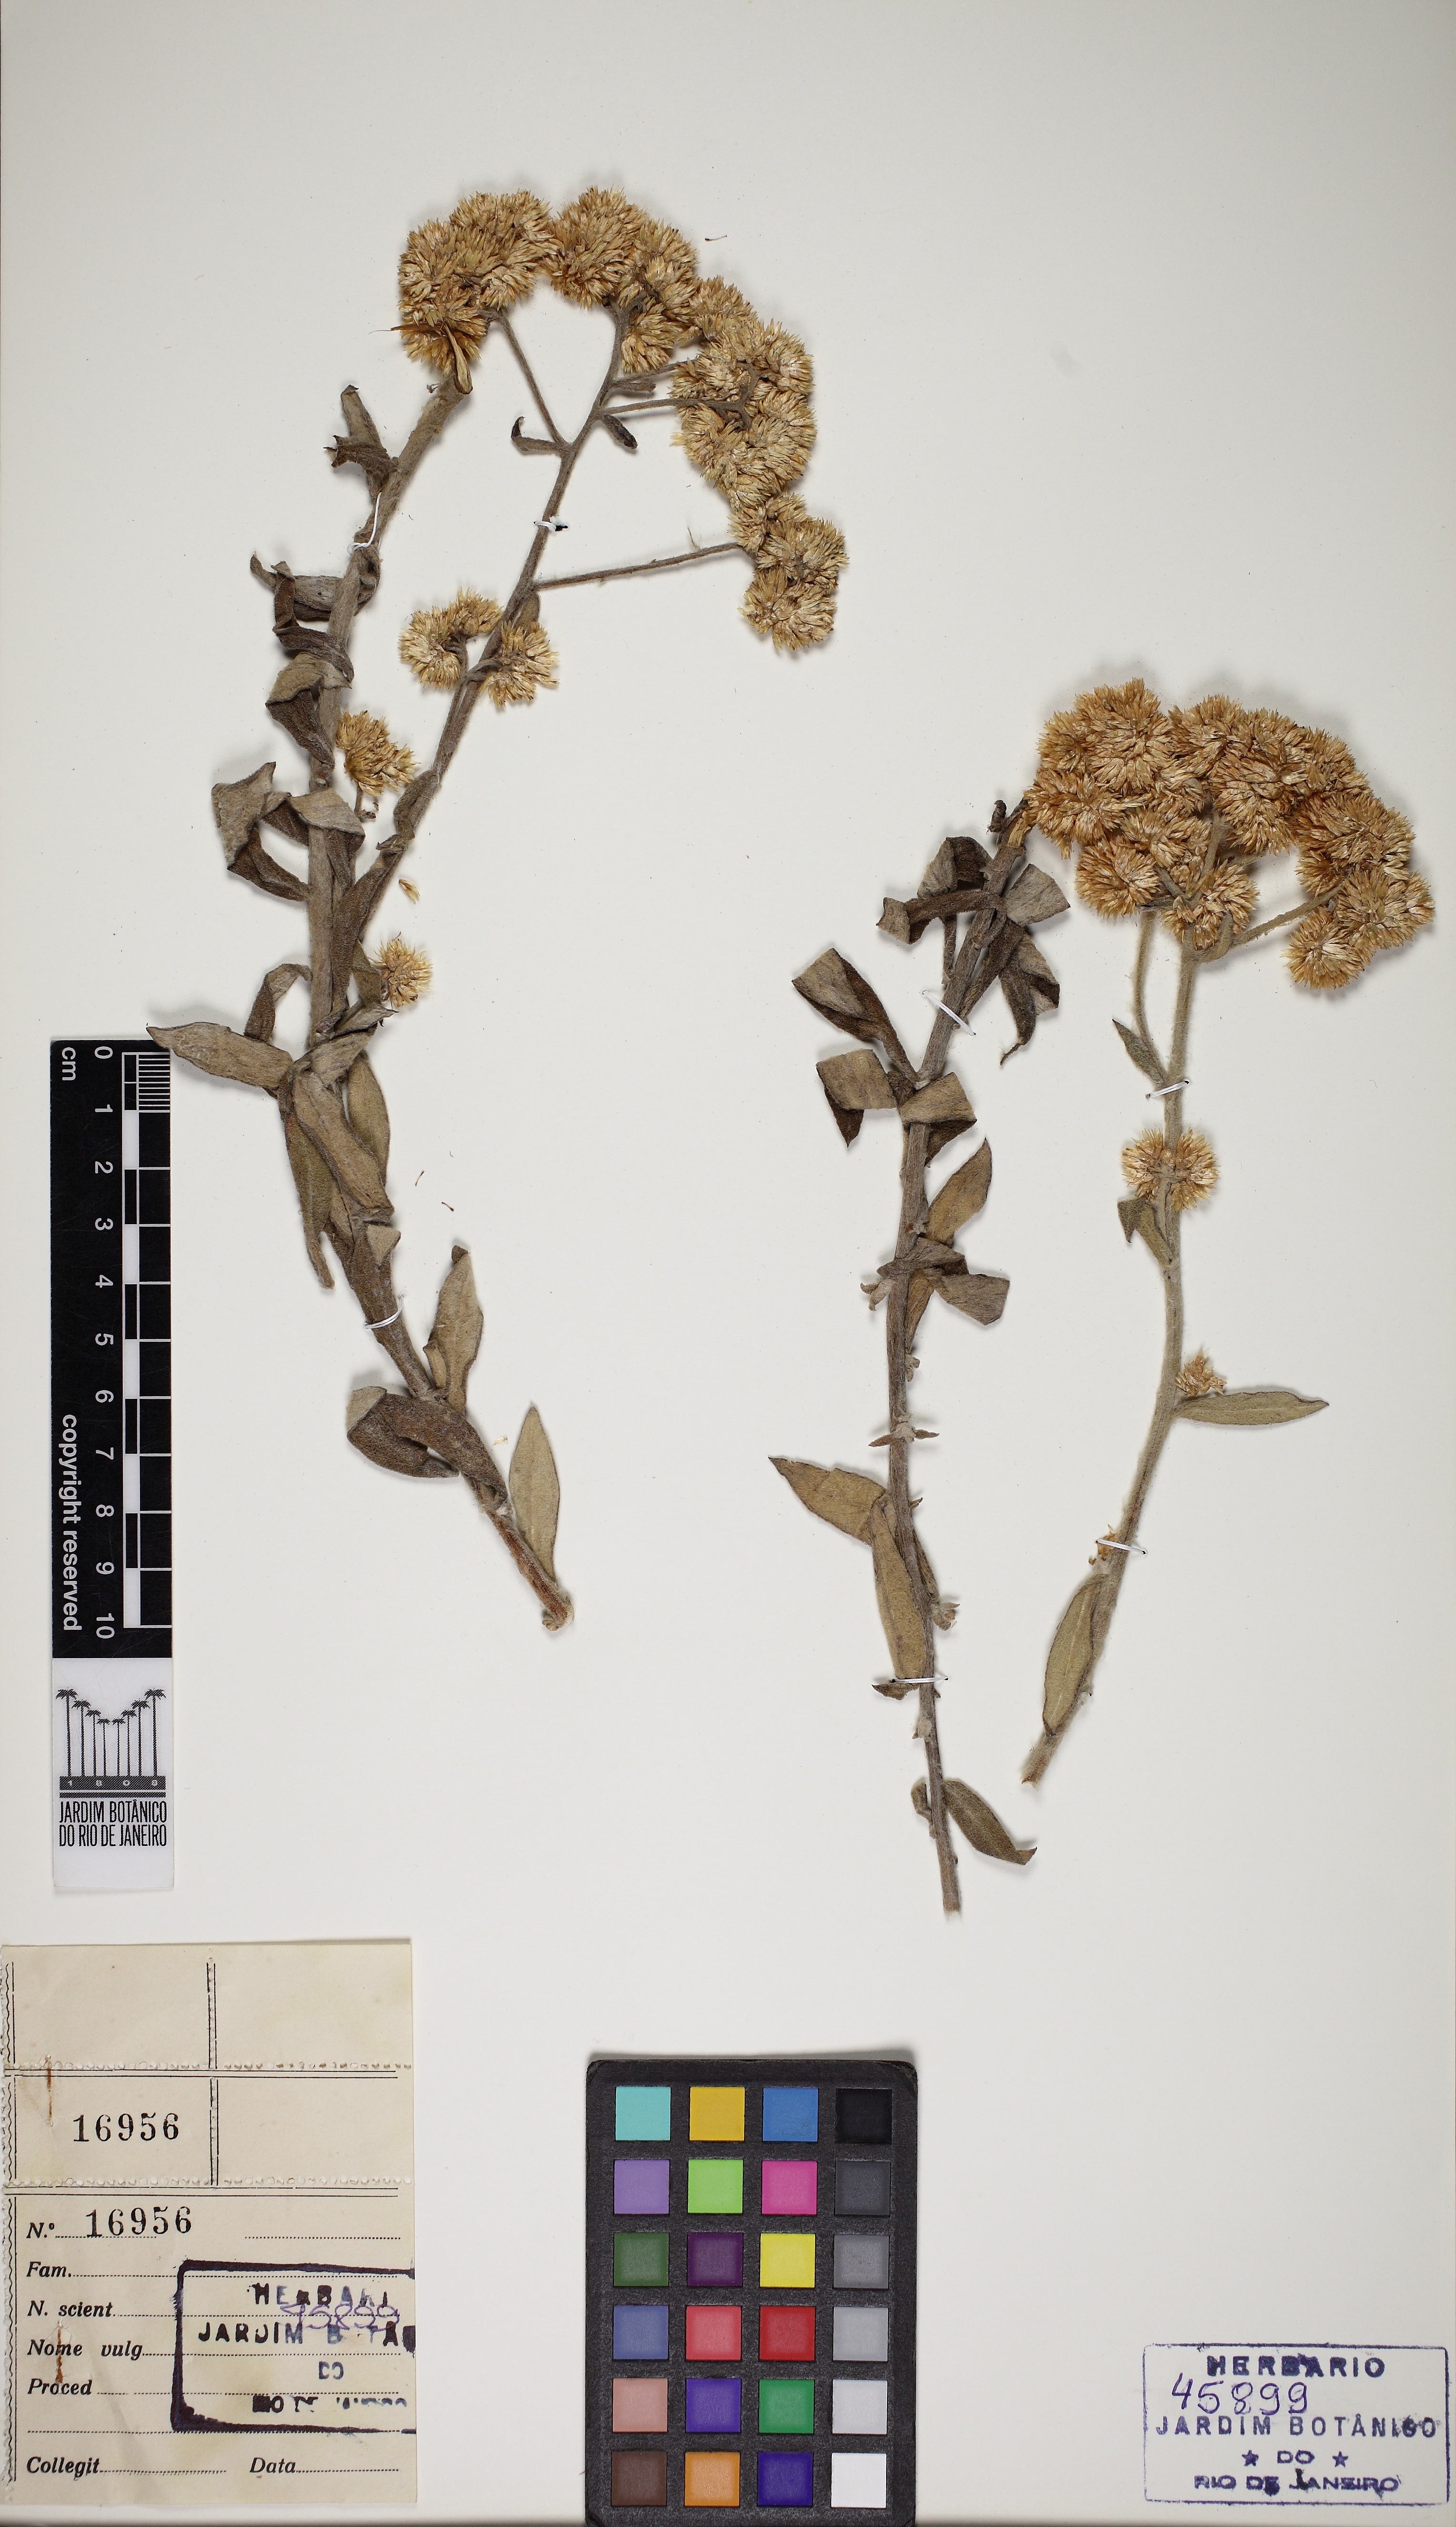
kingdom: Plantae
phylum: Tracheophyta
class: Magnoliopsida
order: Asterales
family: Asteraceae
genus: Achyrocline
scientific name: Achyrocline vargasiana
